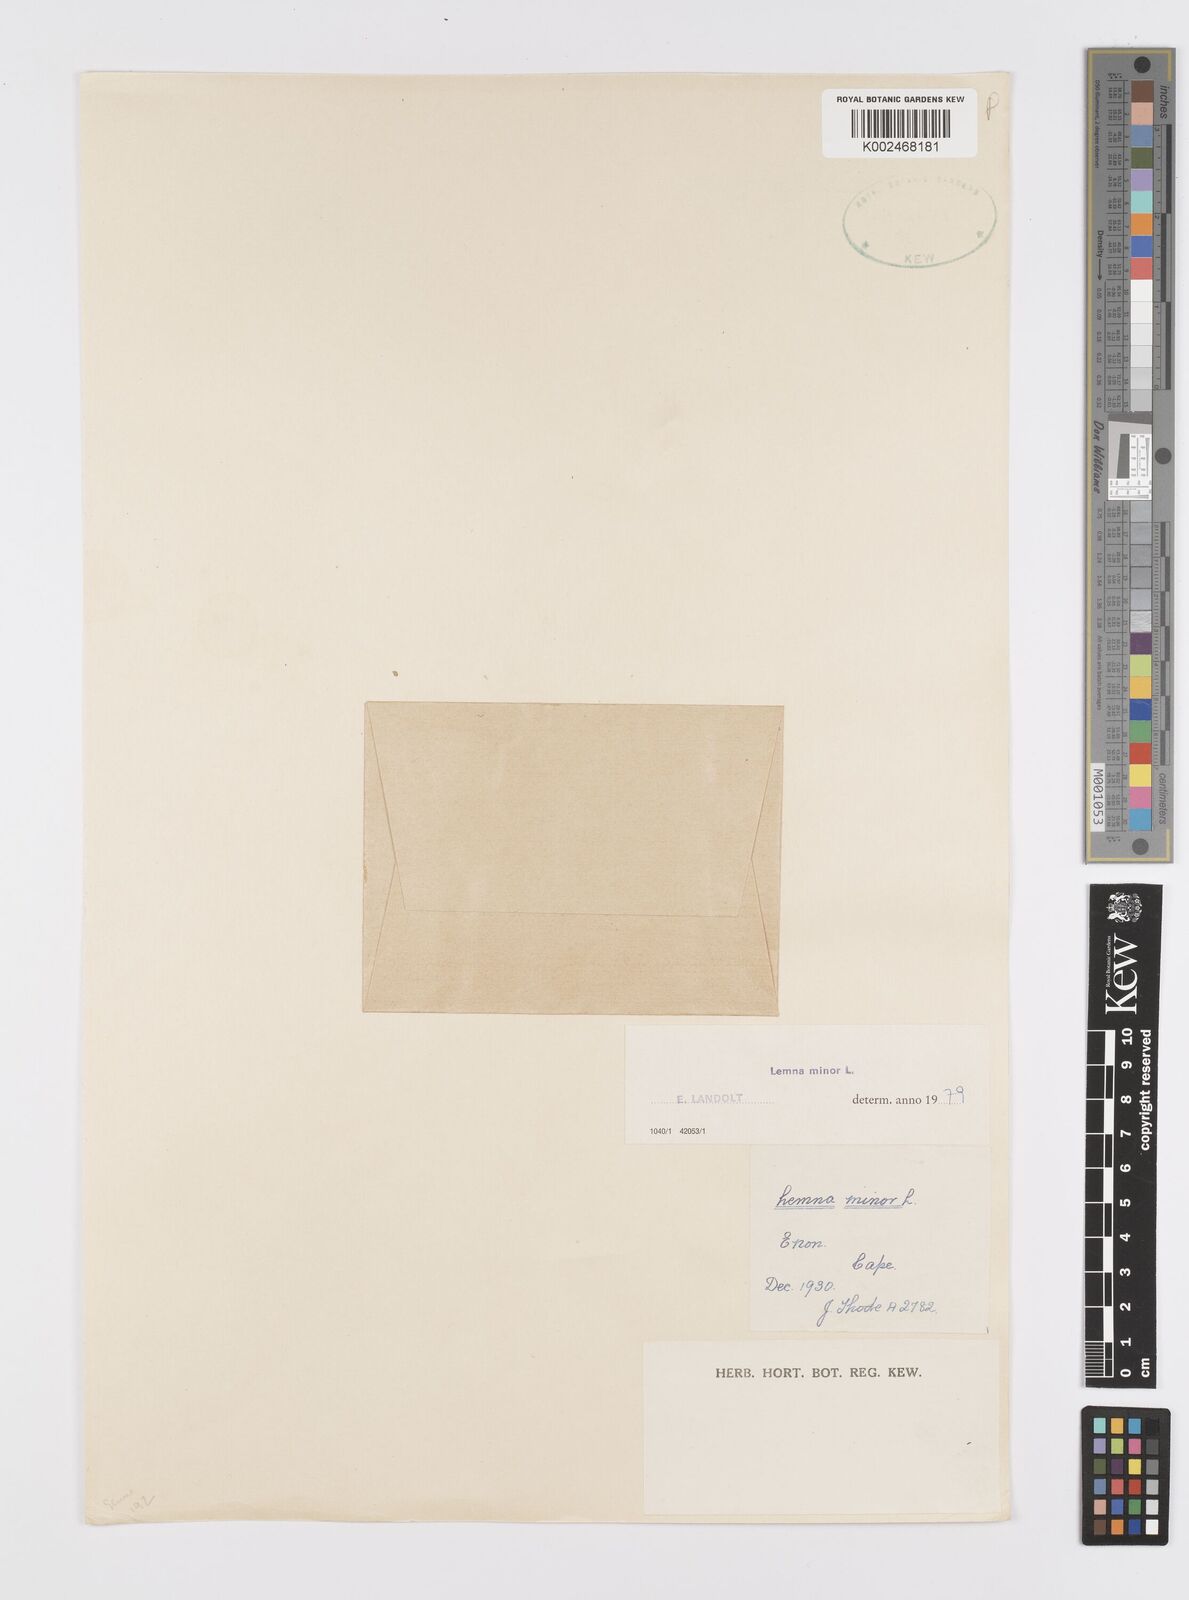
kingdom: Plantae
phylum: Tracheophyta
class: Liliopsida
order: Alismatales
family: Araceae
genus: Lemna
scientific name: Lemna minor
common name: Common duckweed
